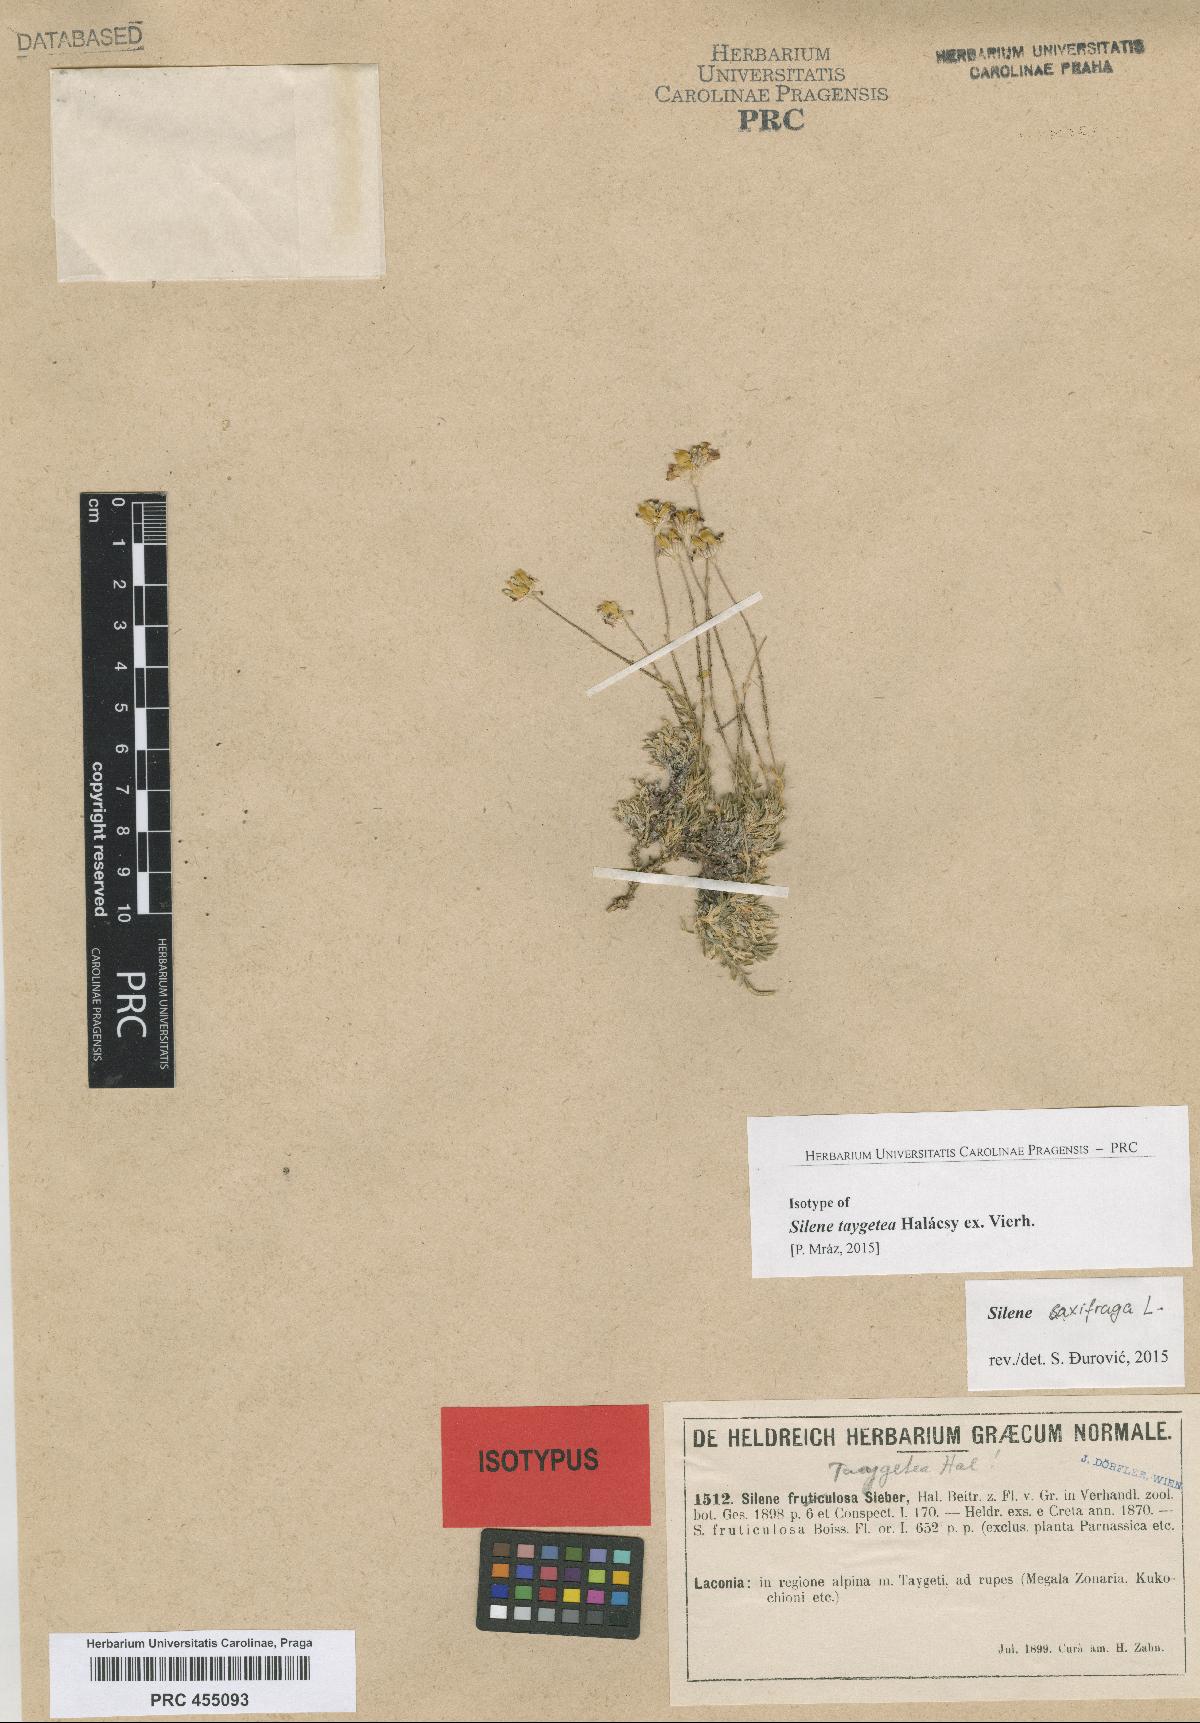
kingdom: Plantae
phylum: Tracheophyta
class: Magnoliopsida
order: Caryophyllales
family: Caryophyllaceae
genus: Silene
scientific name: Silene saxifraga
